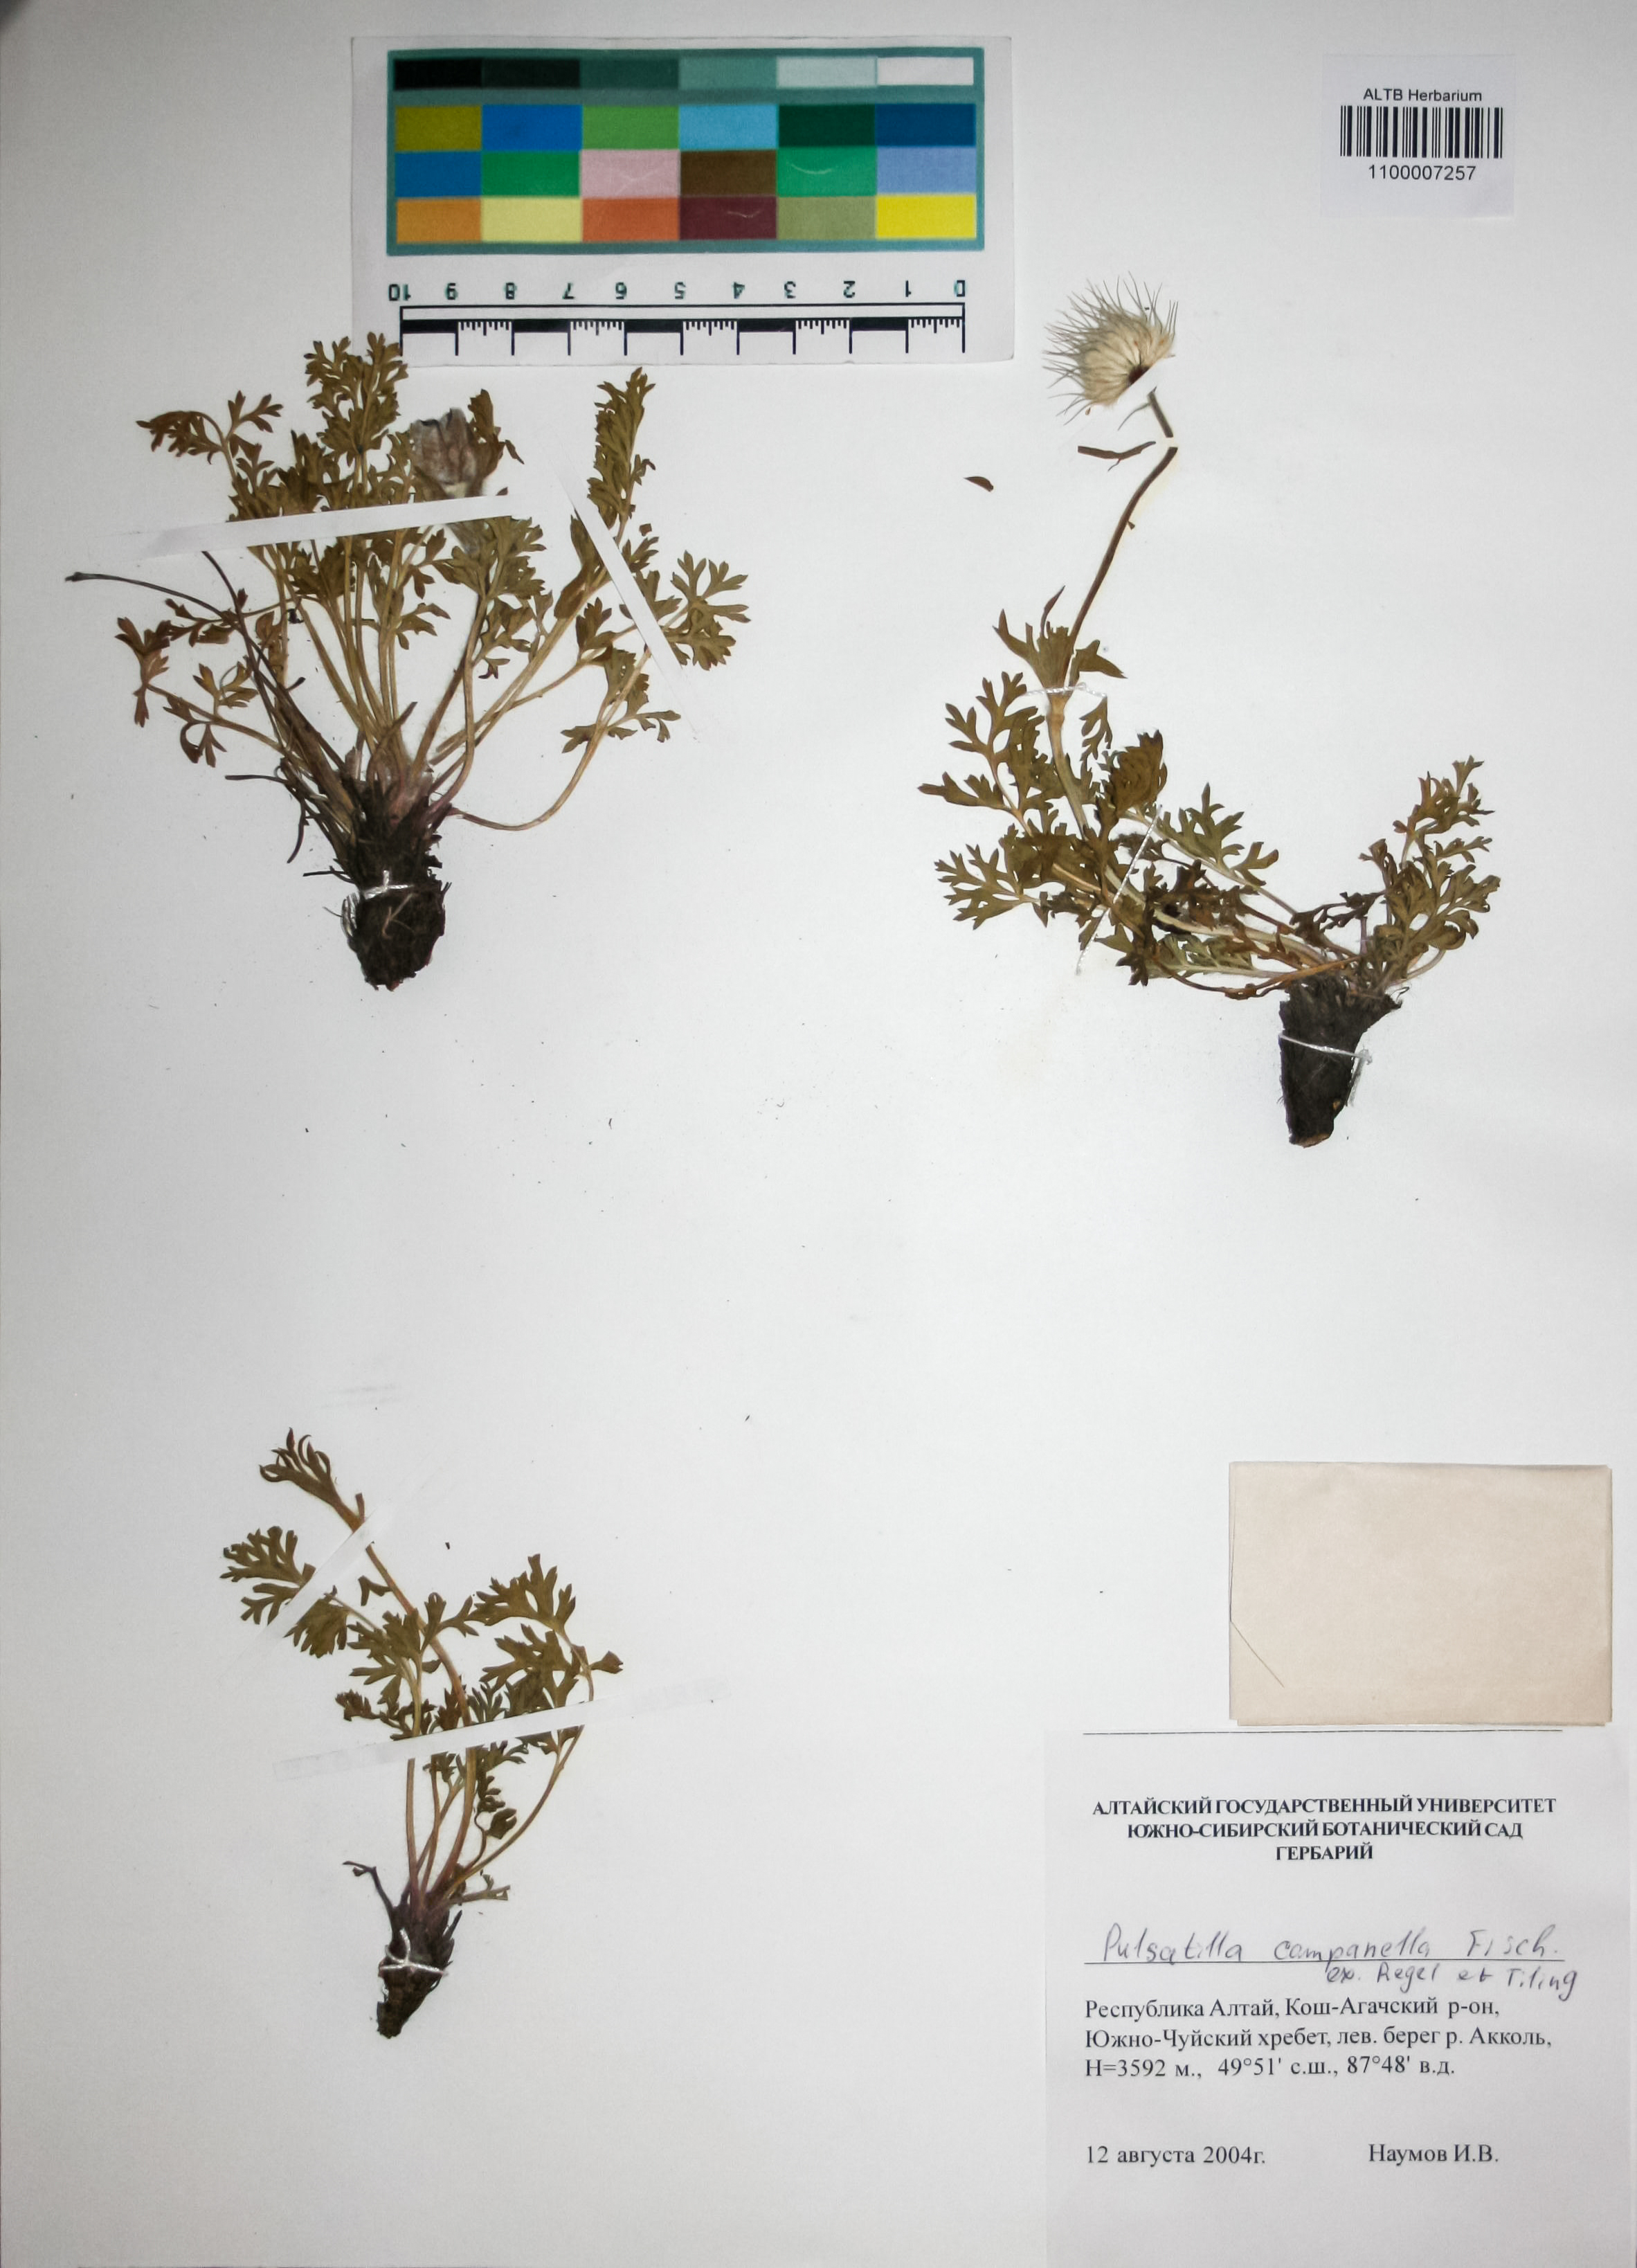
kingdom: Plantae
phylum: Tracheophyta
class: Magnoliopsida
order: Ranunculales
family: Ranunculaceae
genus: Pulsatilla
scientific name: Pulsatilla campanella
